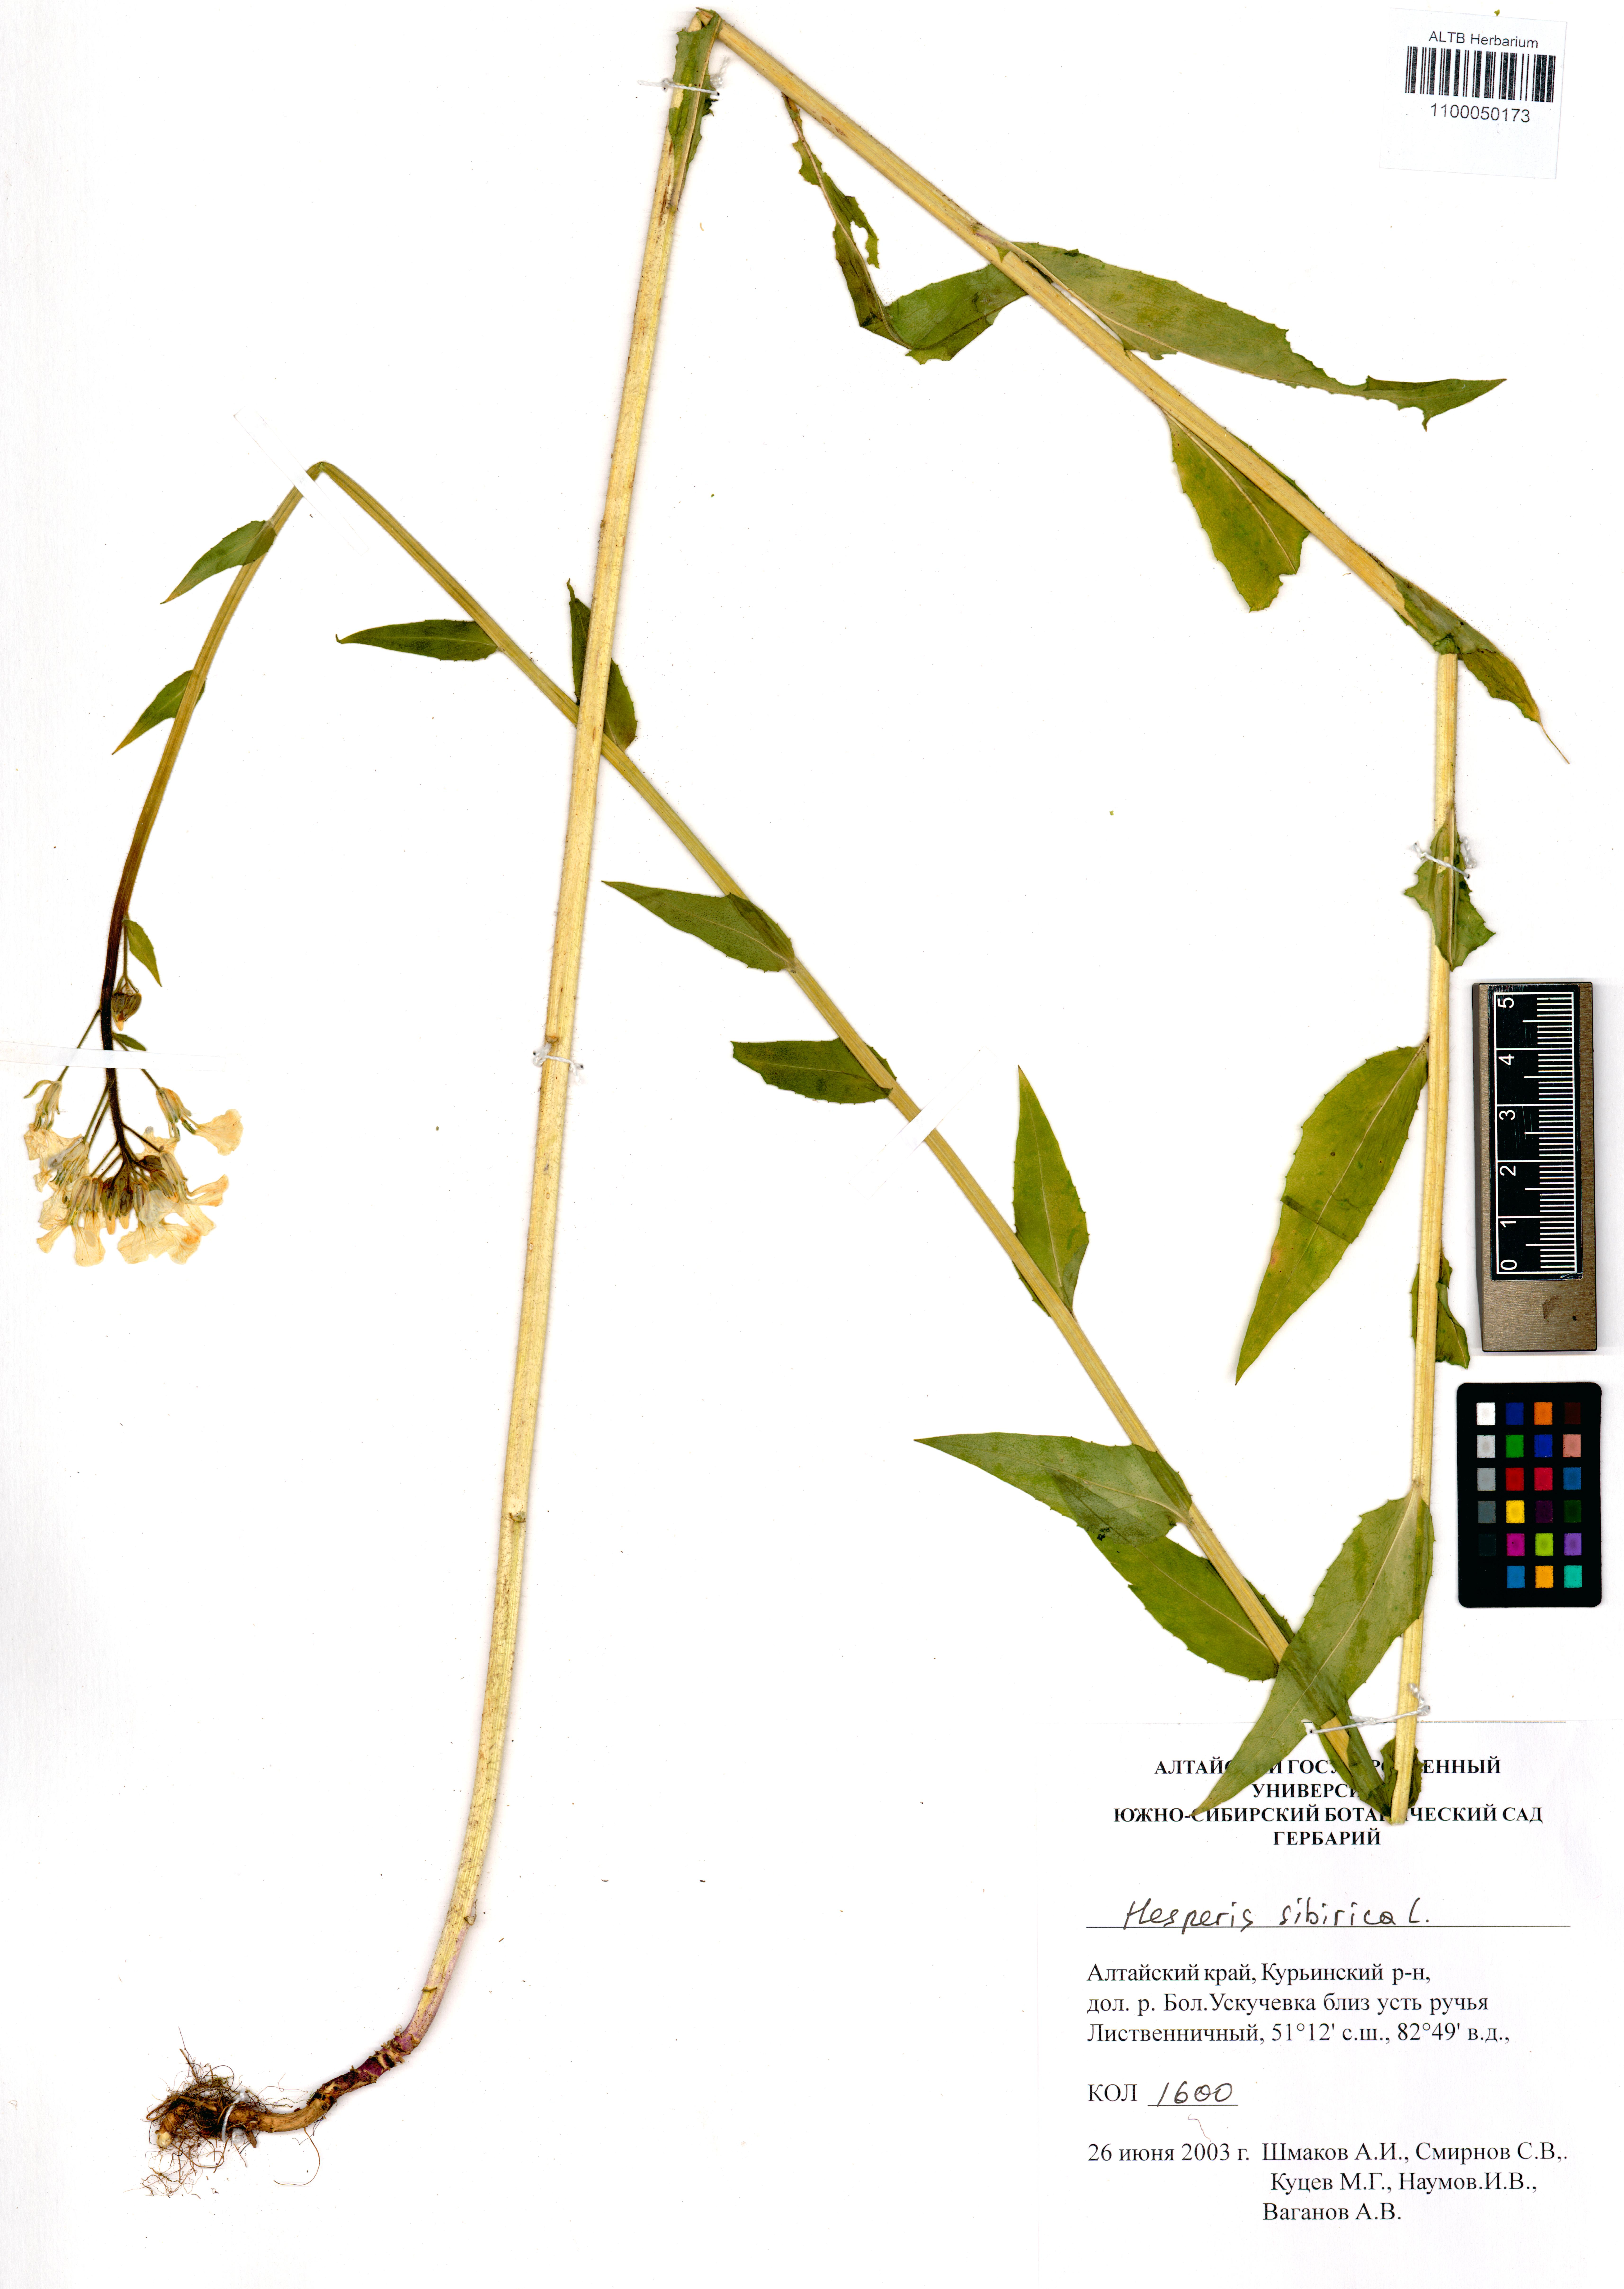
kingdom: Plantae
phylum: Tracheophyta
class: Magnoliopsida
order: Brassicales
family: Brassicaceae
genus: Hesperis
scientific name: Hesperis sibirica
